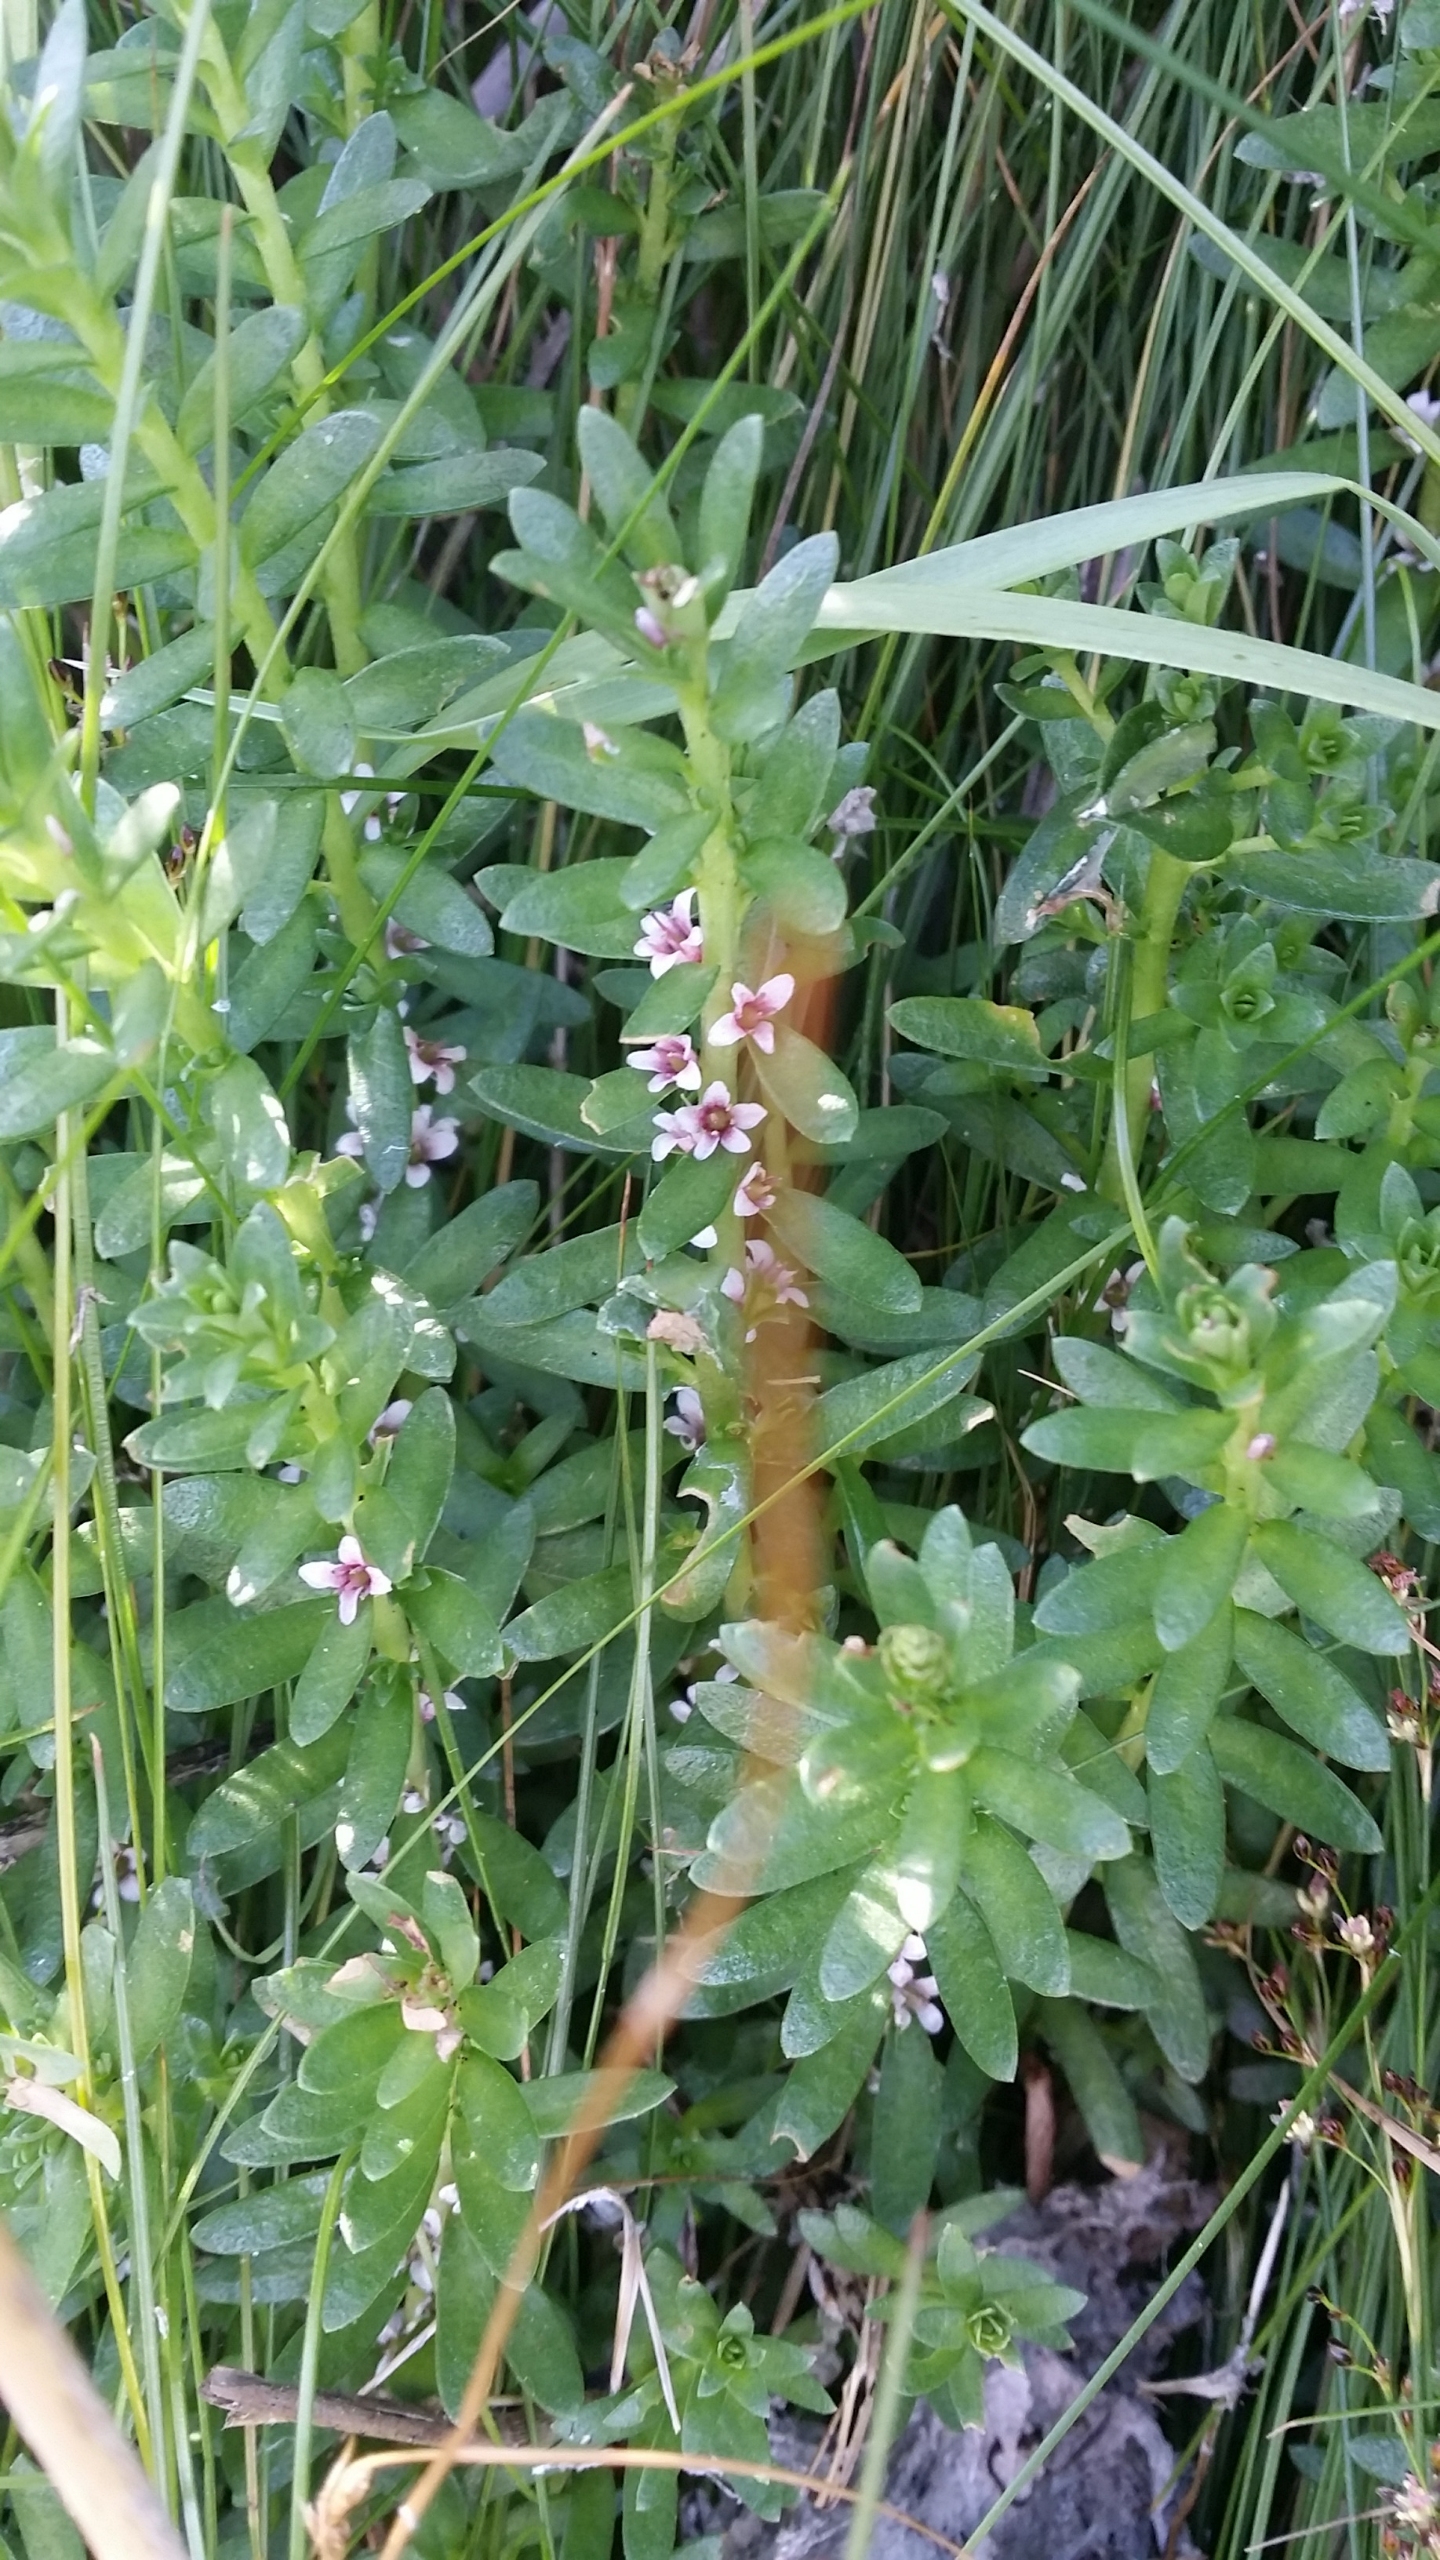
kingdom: Plantae
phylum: Tracheophyta
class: Magnoliopsida
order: Ericales
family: Primulaceae
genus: Lysimachia
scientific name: Lysimachia maritima
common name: Sandkryb
